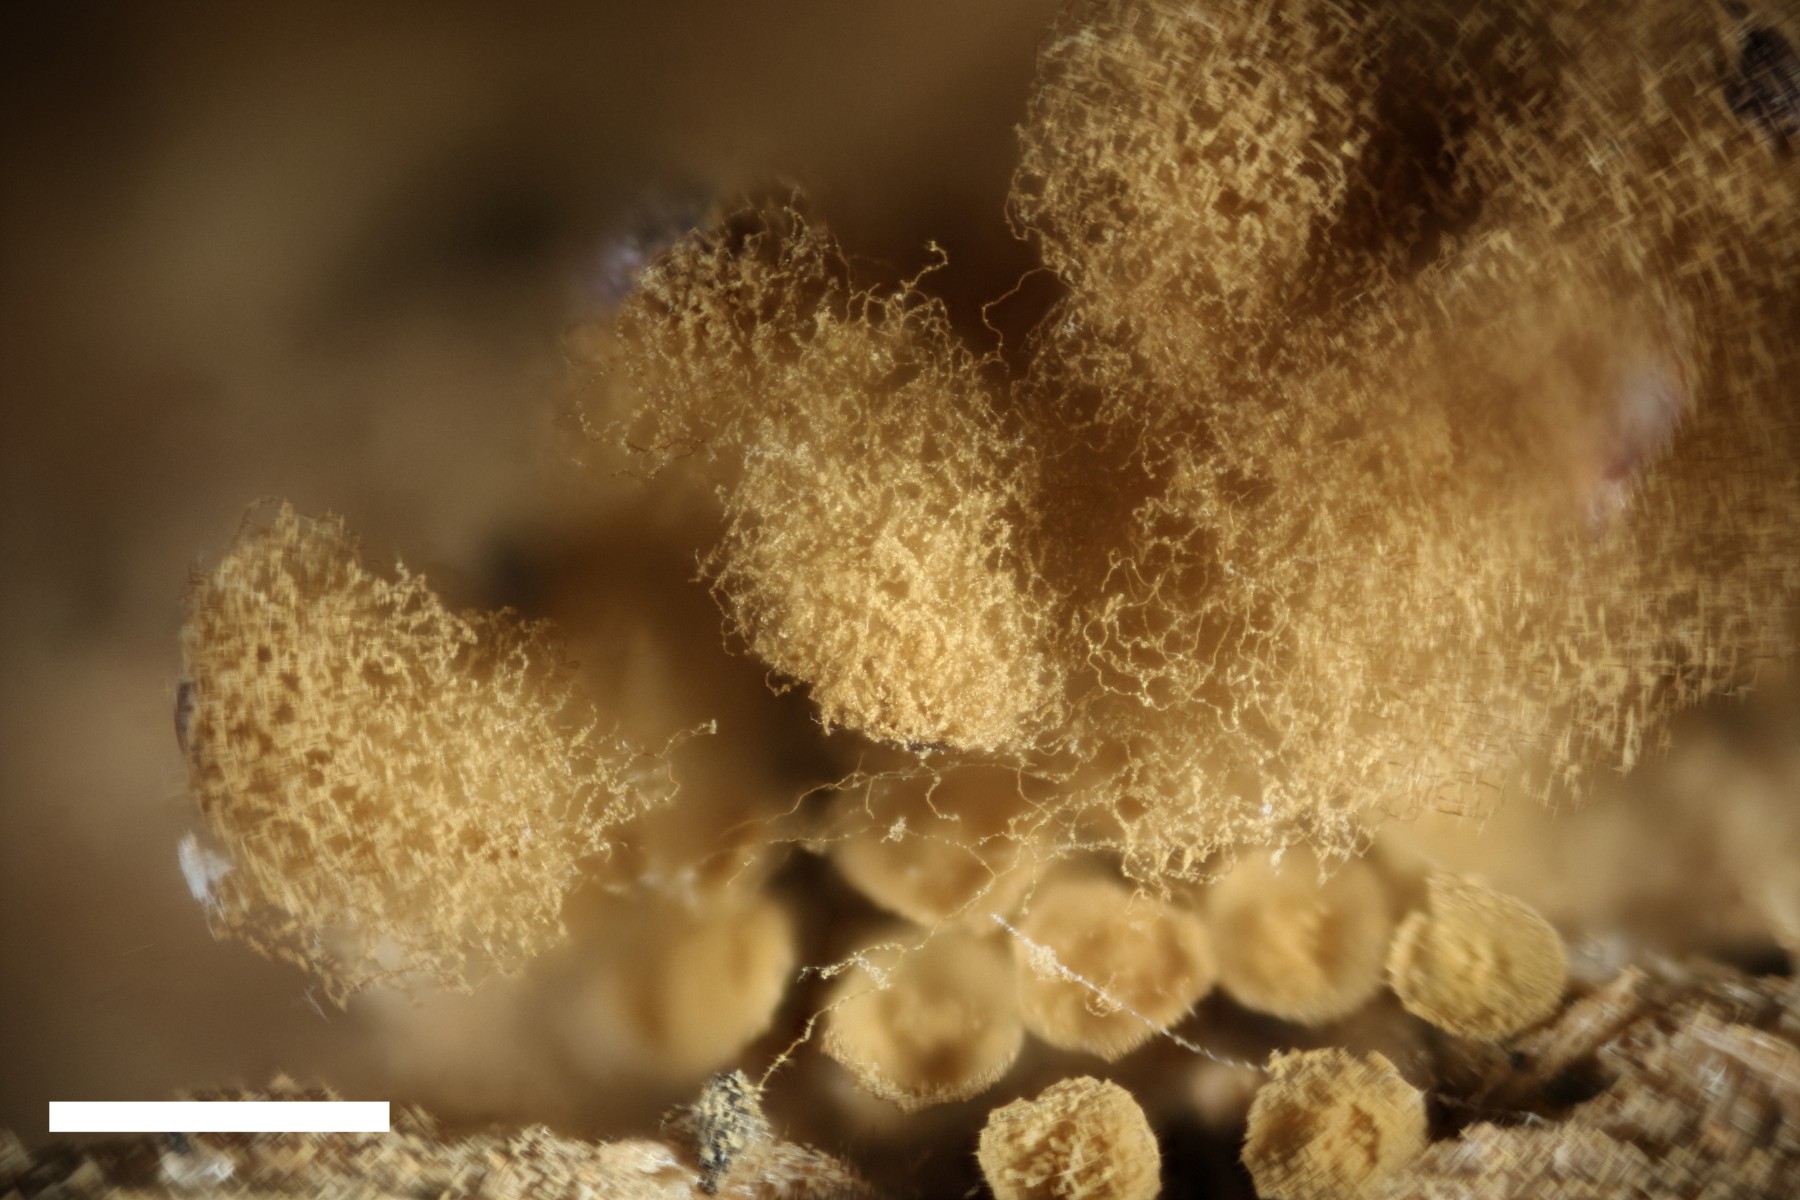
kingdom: Protozoa
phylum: Mycetozoa
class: Myxomycetes
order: Trichiales
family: Arcyriaceae
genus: Arcyria
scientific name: Arcyria incarnata
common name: rosa skålsvøb
